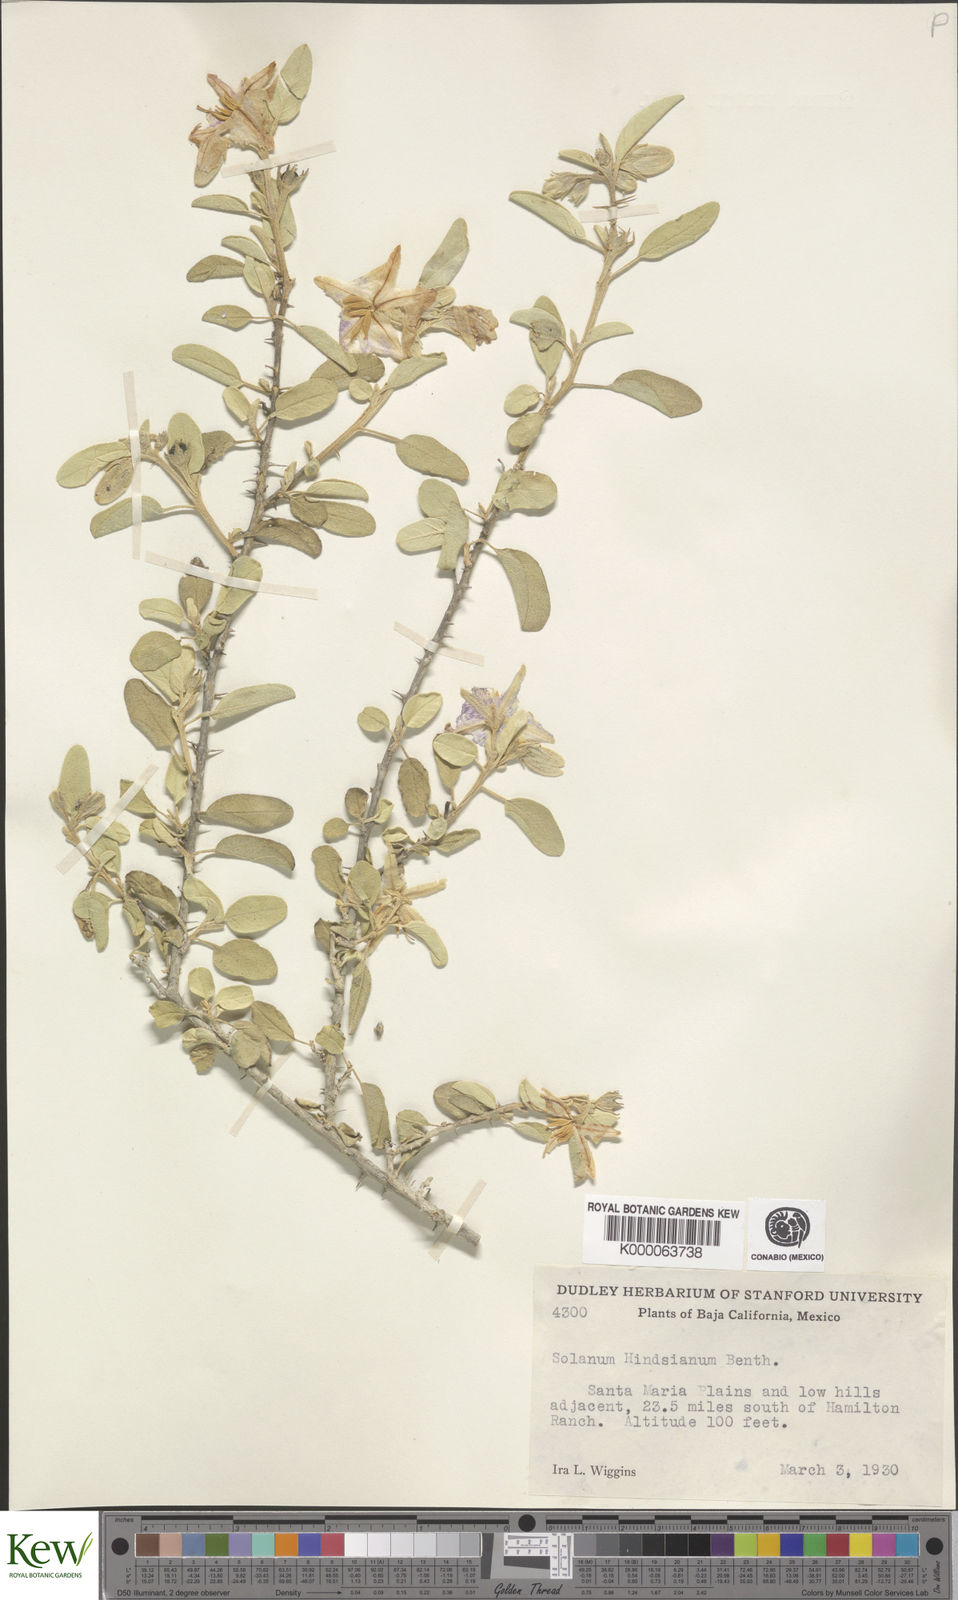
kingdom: Plantae
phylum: Tracheophyta
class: Magnoliopsida
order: Solanales
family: Solanaceae
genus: Solanum
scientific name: Solanum hindsianum
